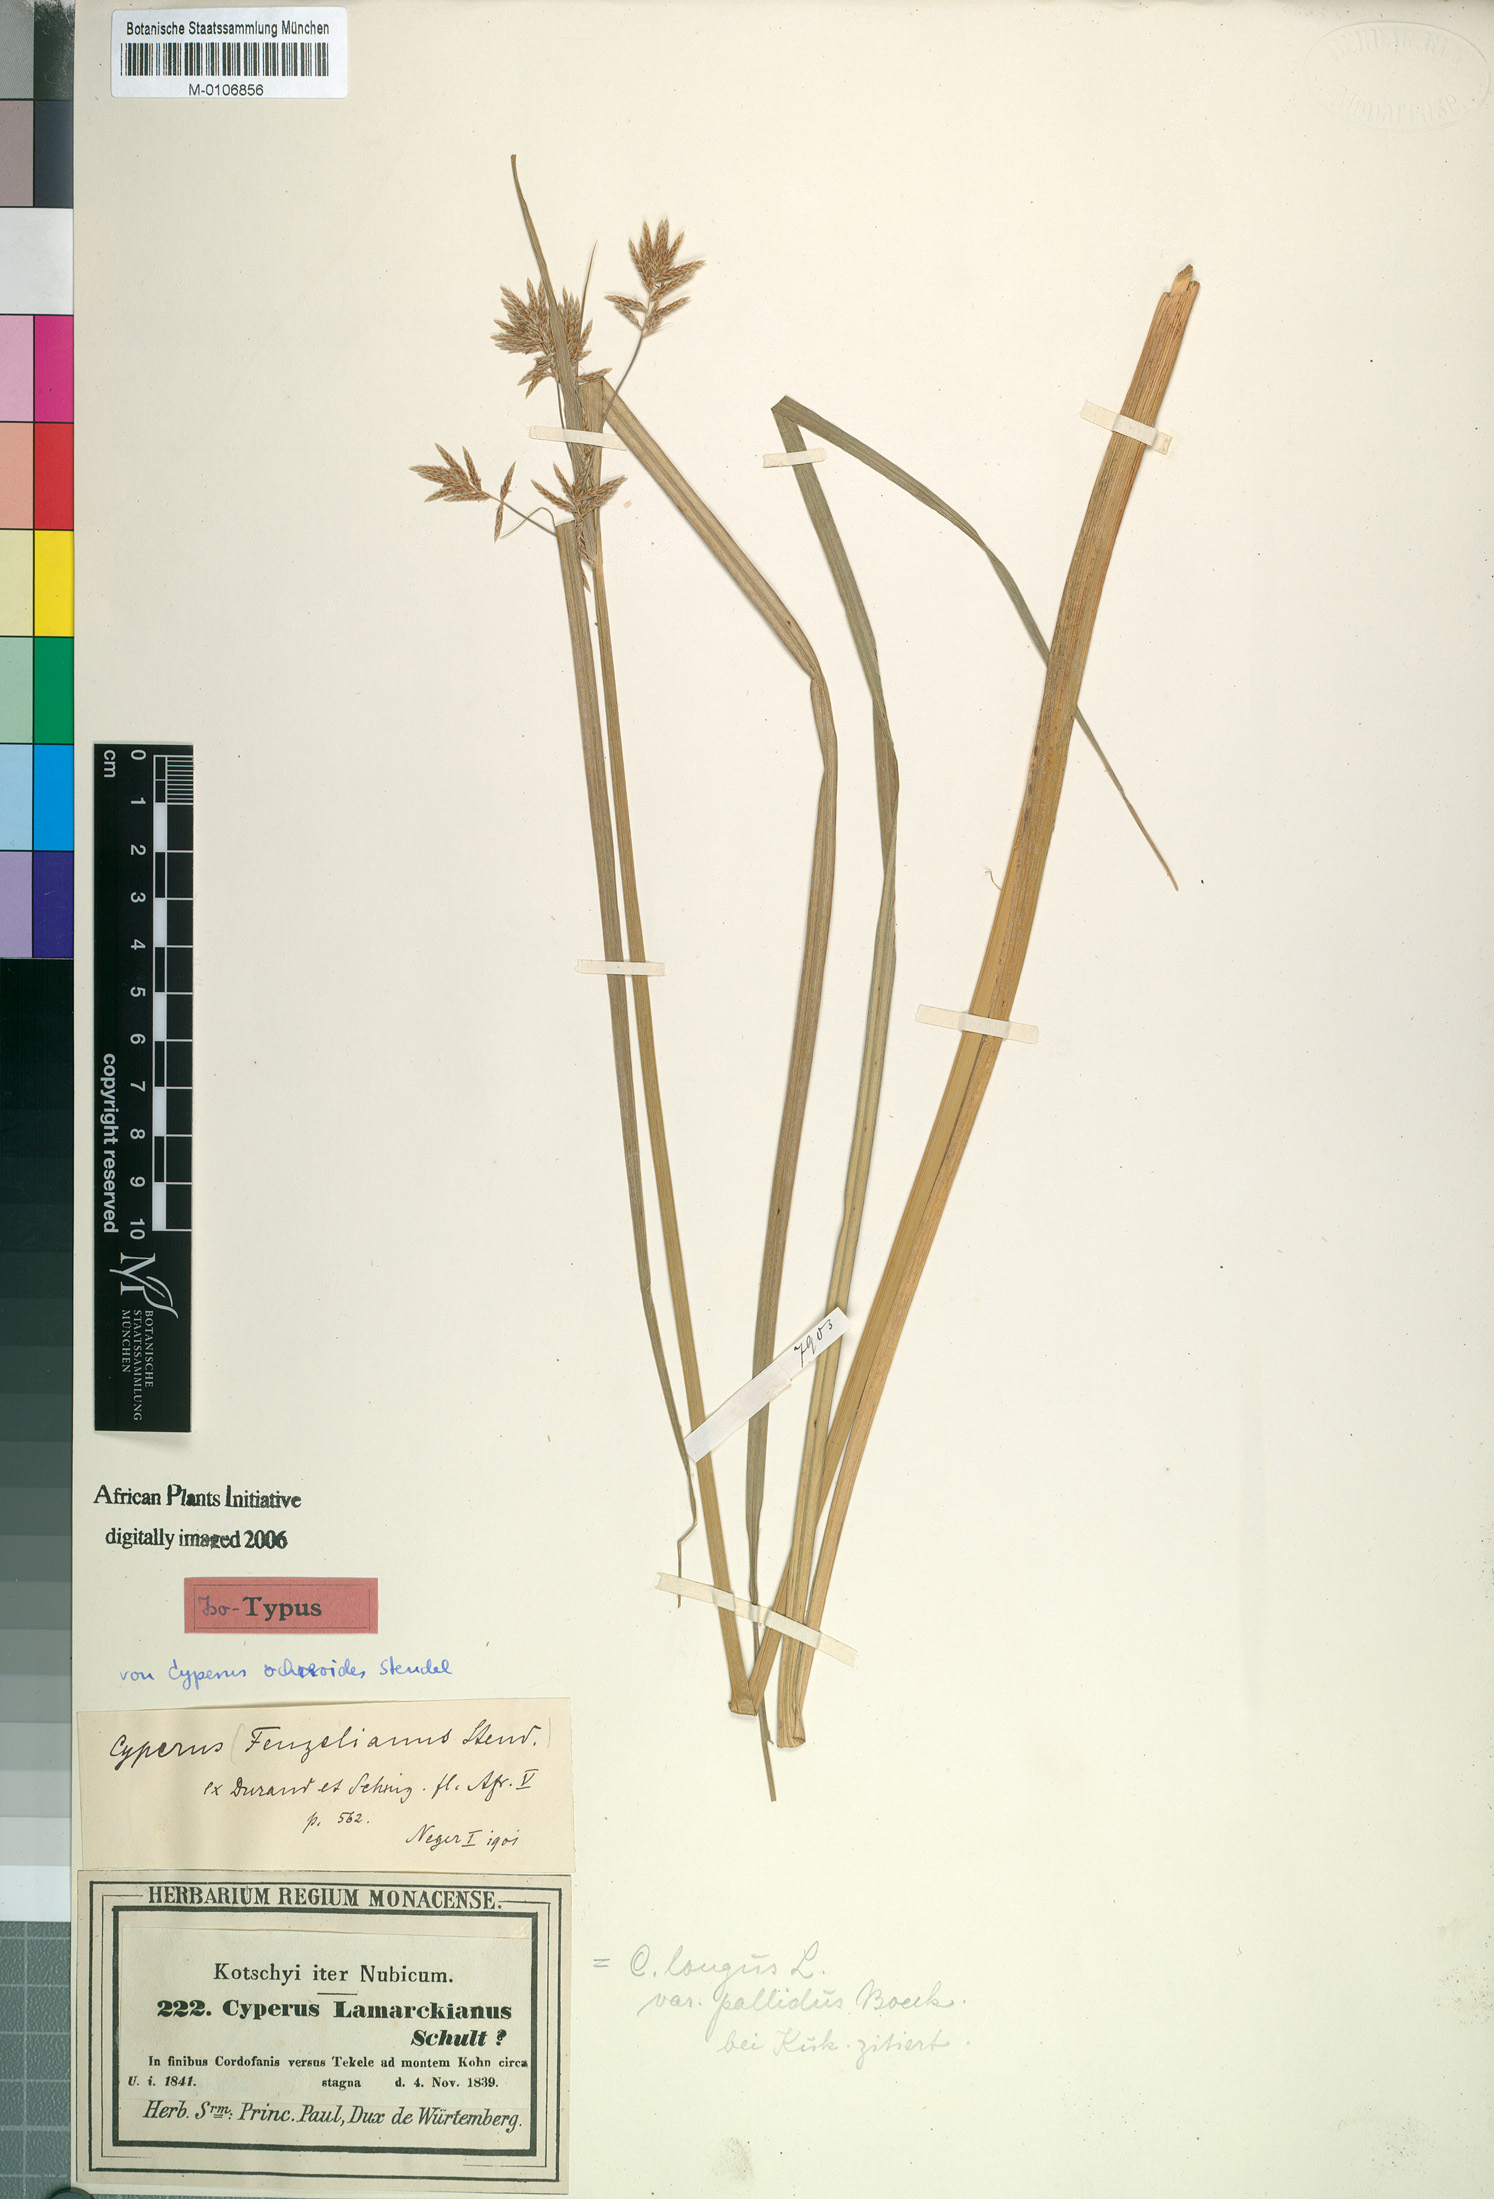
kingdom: Plantae
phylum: Tracheophyta
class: Liliopsida
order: Poales
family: Cyperaceae
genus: Cyperus
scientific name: Cyperus longus
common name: Galingale
